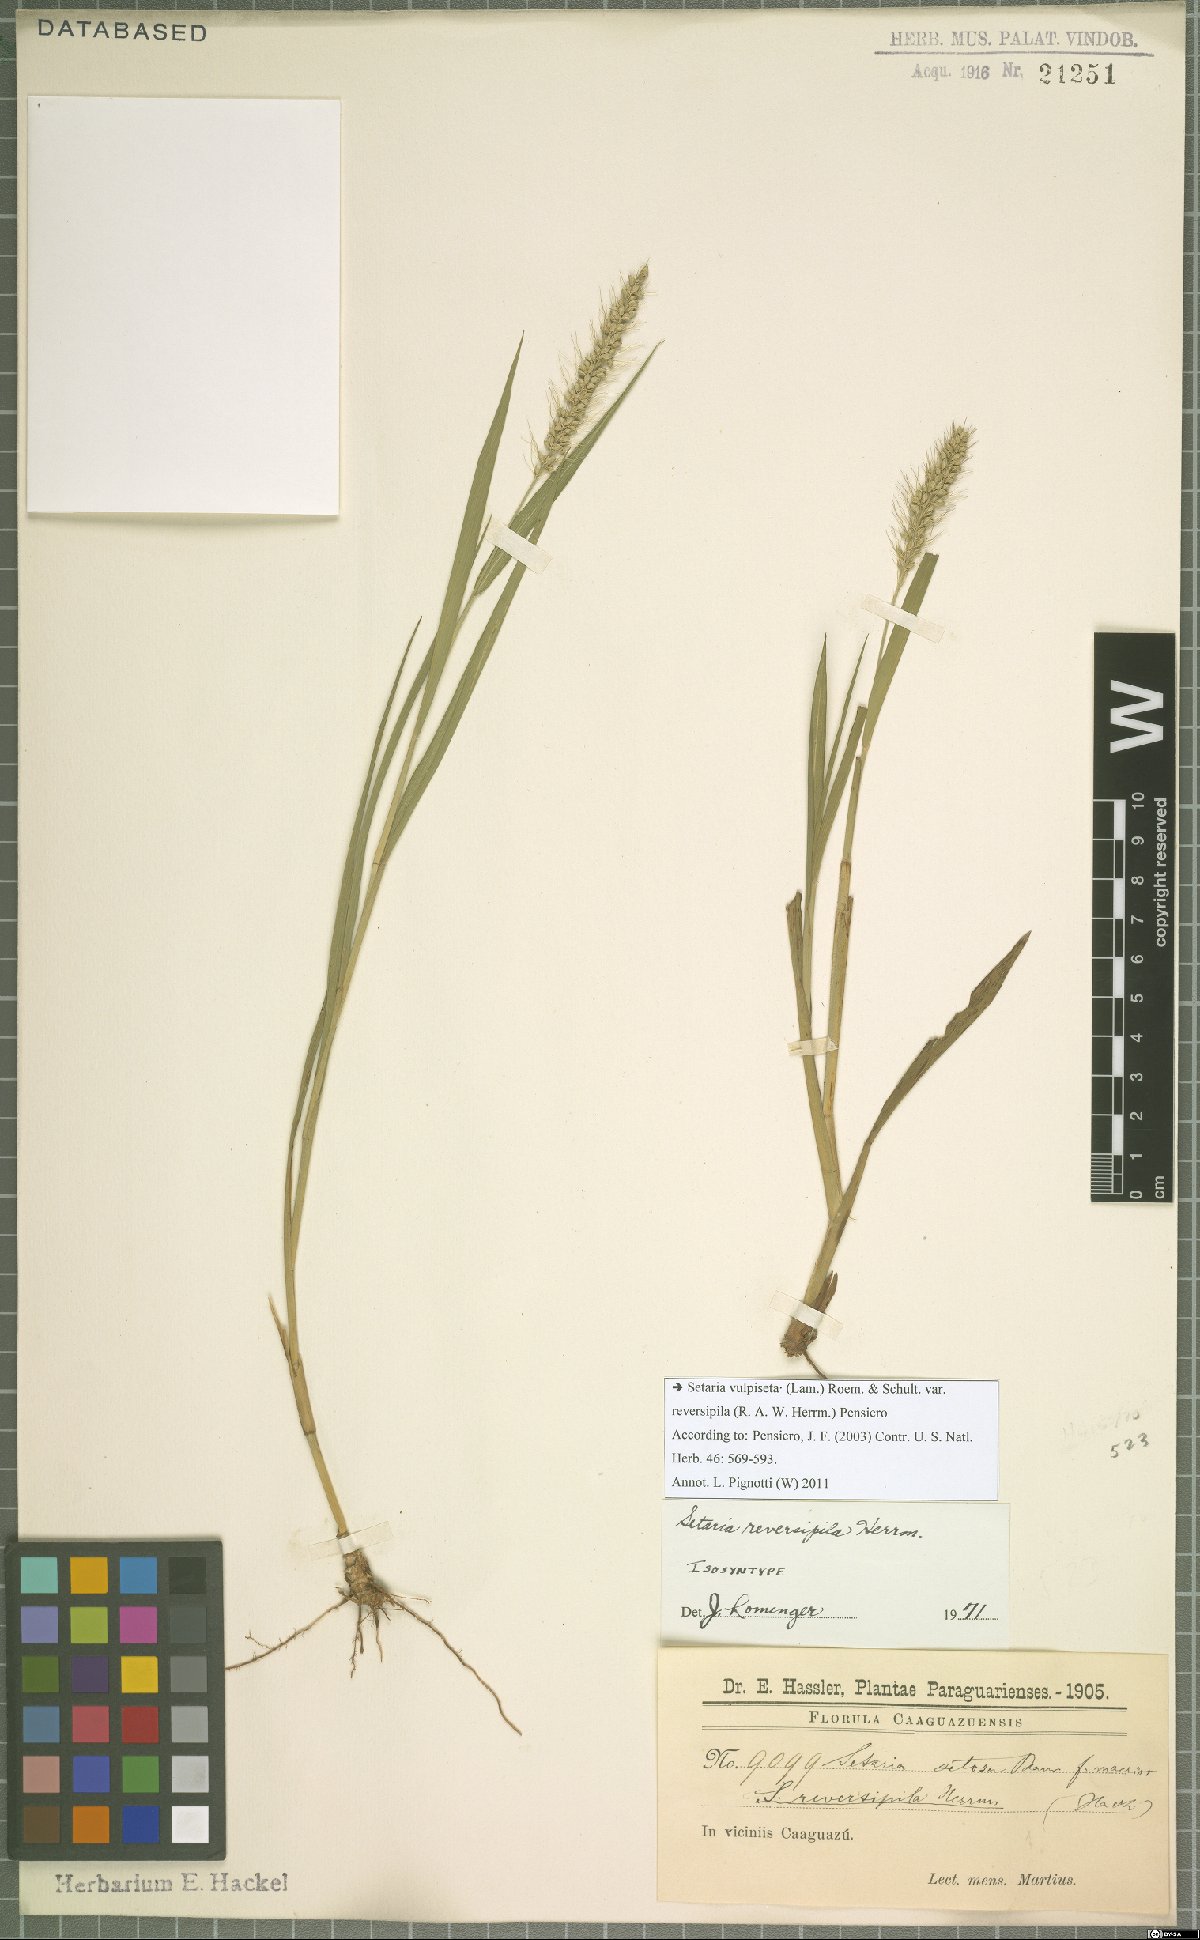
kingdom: Plantae
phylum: Tracheophyta
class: Liliopsida
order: Poales
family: Poaceae
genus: Setaria
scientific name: Setaria vulpiseta
